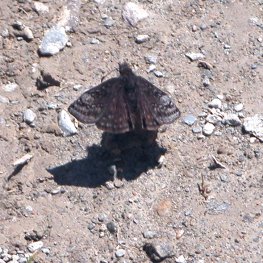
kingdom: Animalia
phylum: Arthropoda
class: Insecta
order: Lepidoptera
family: Hesperiidae
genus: Erynnis
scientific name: Erynnis icelus
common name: Dreamy Duskywing
